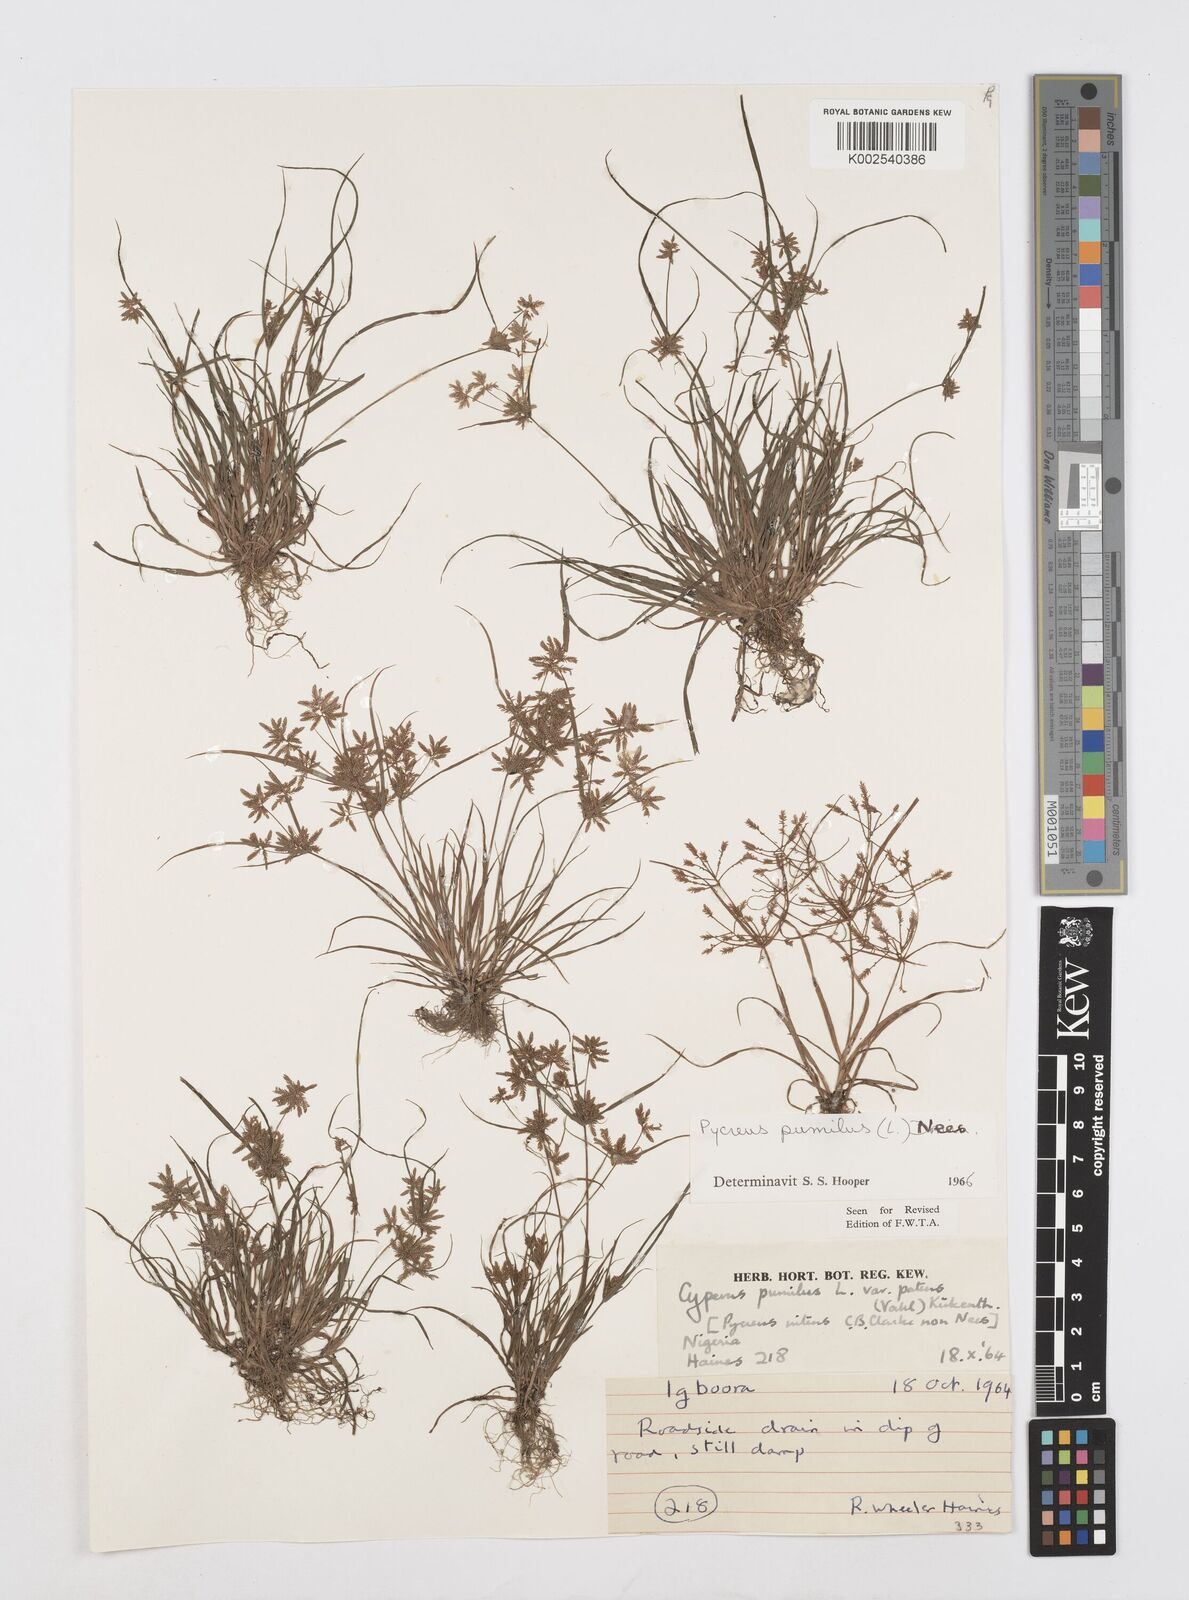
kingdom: Plantae
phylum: Tracheophyta
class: Liliopsida
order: Poales
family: Cyperaceae
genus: Cyperus
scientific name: Cyperus pumilus
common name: Low flatsedge
